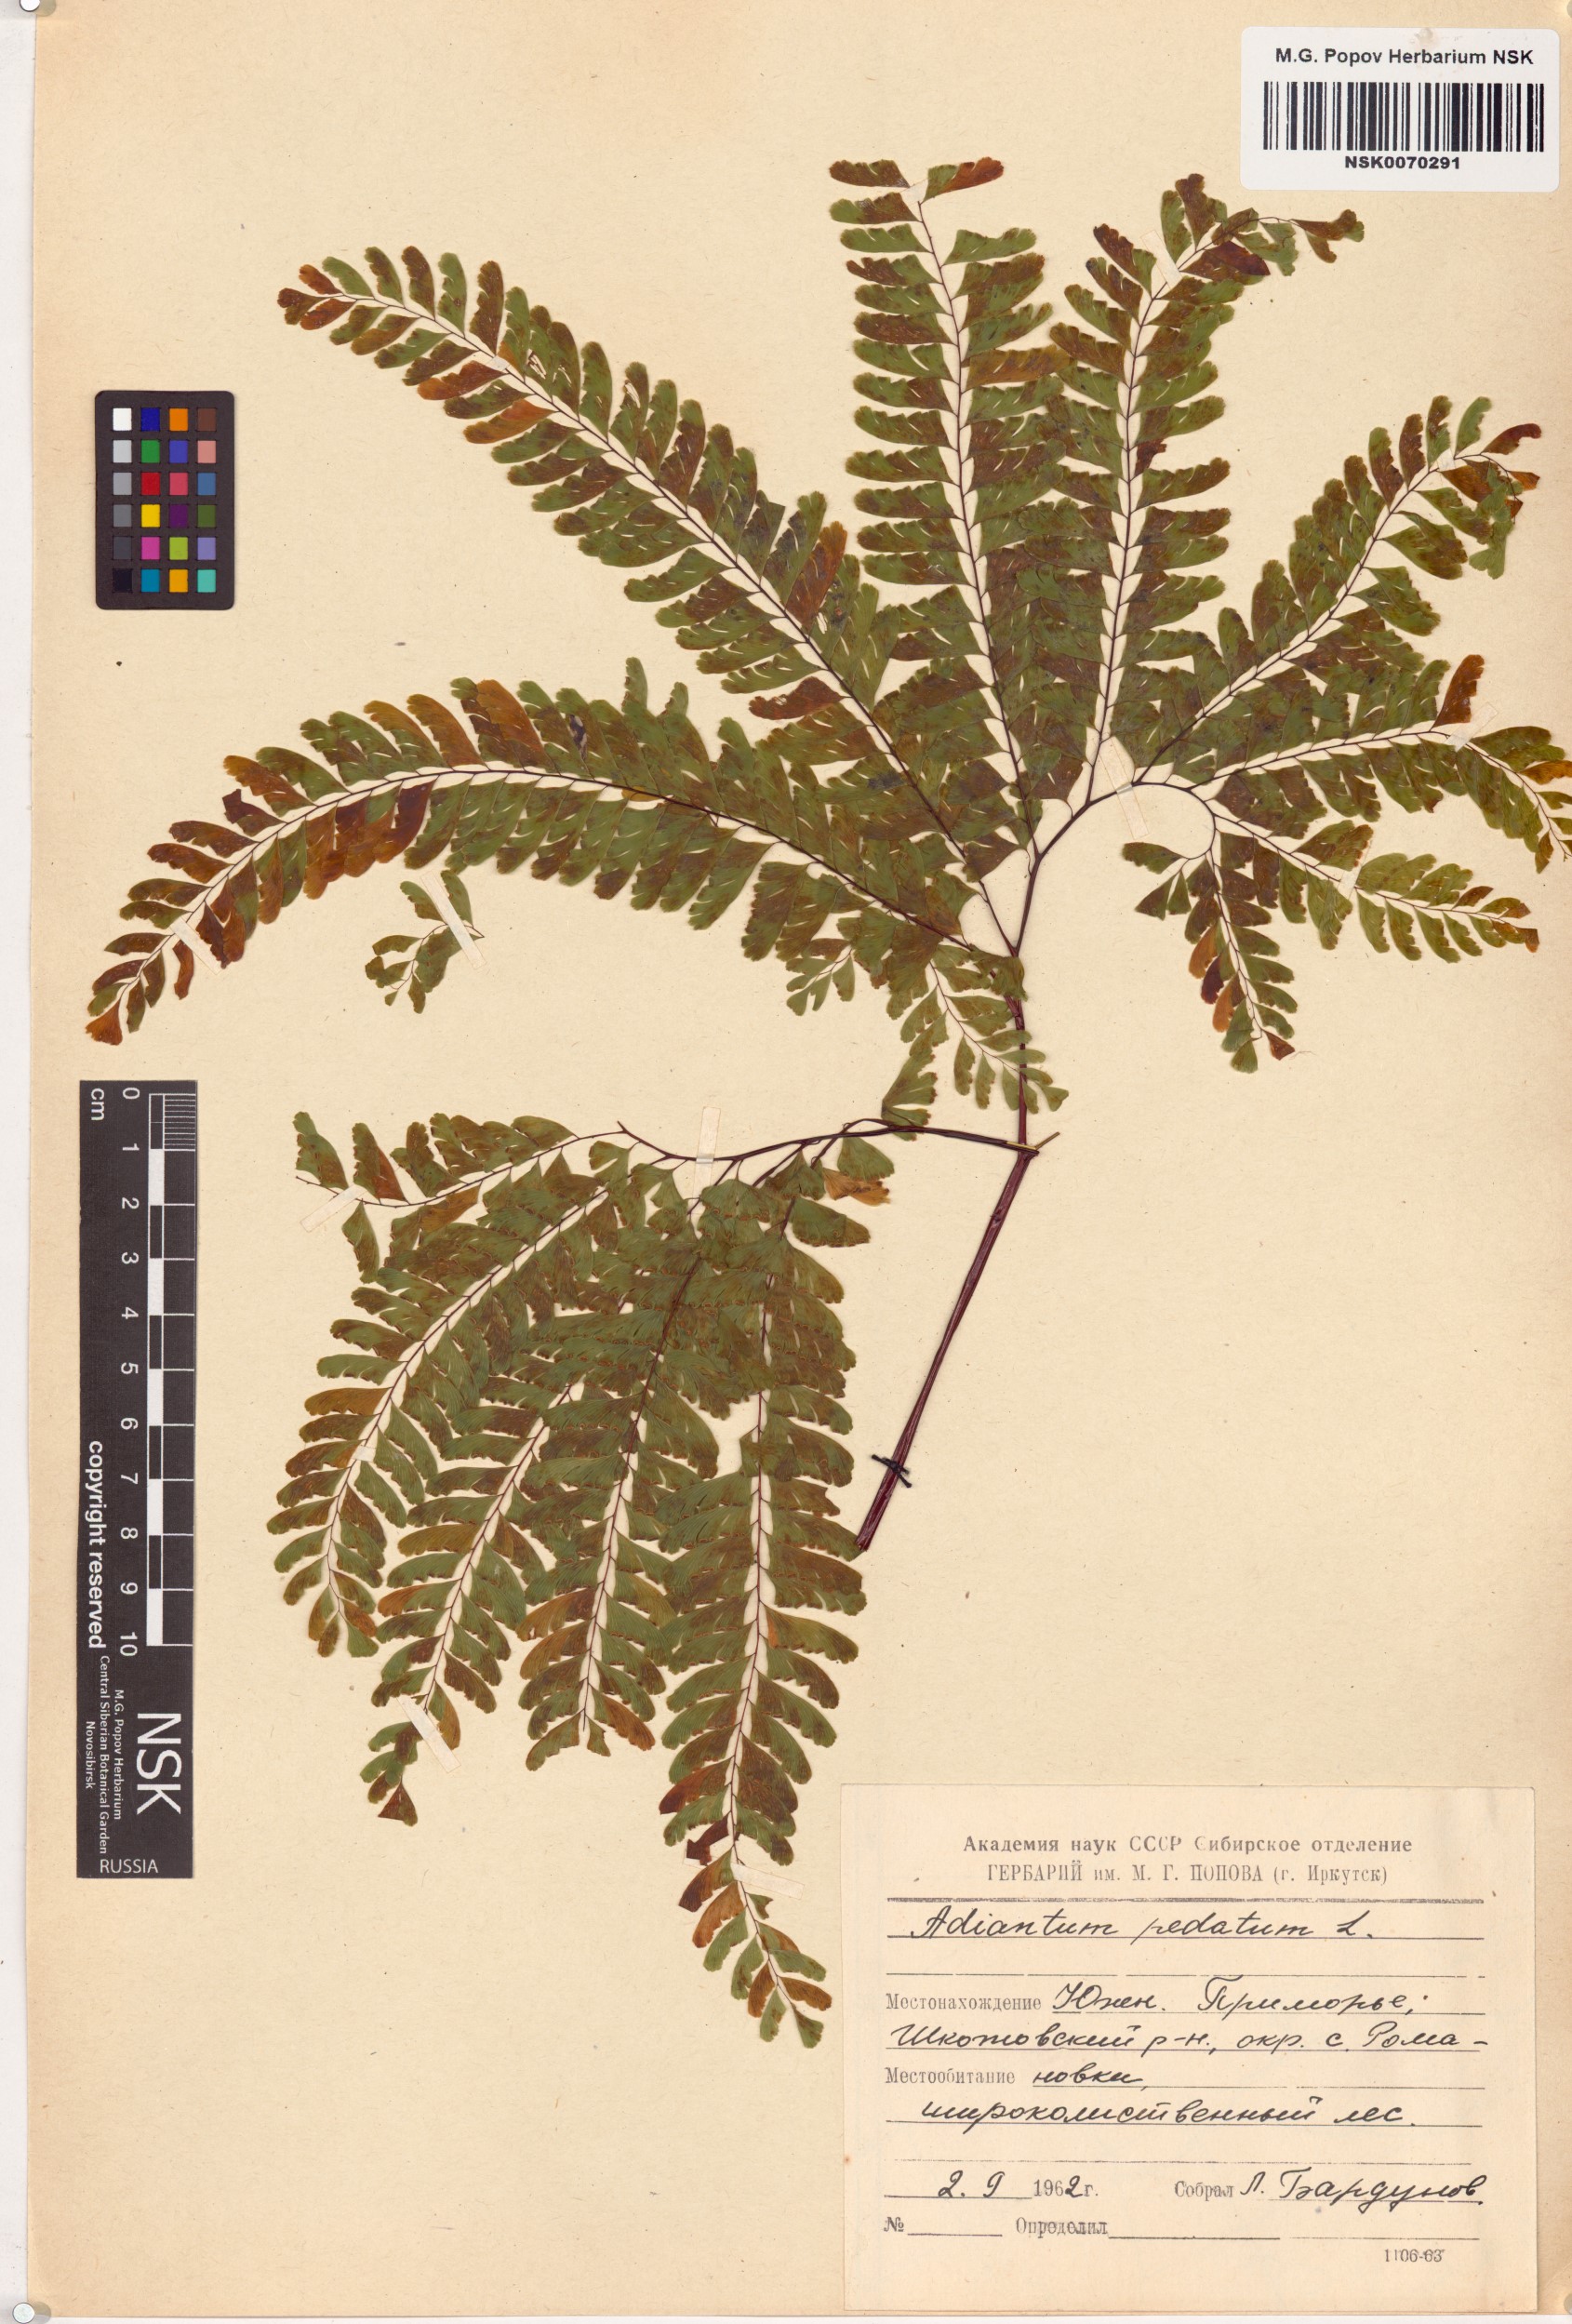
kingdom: Plantae
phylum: Tracheophyta
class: Polypodiopsida
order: Polypodiales
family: Pteridaceae
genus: Adiantum
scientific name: Adiantum pedatum
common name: Five-finger fern
